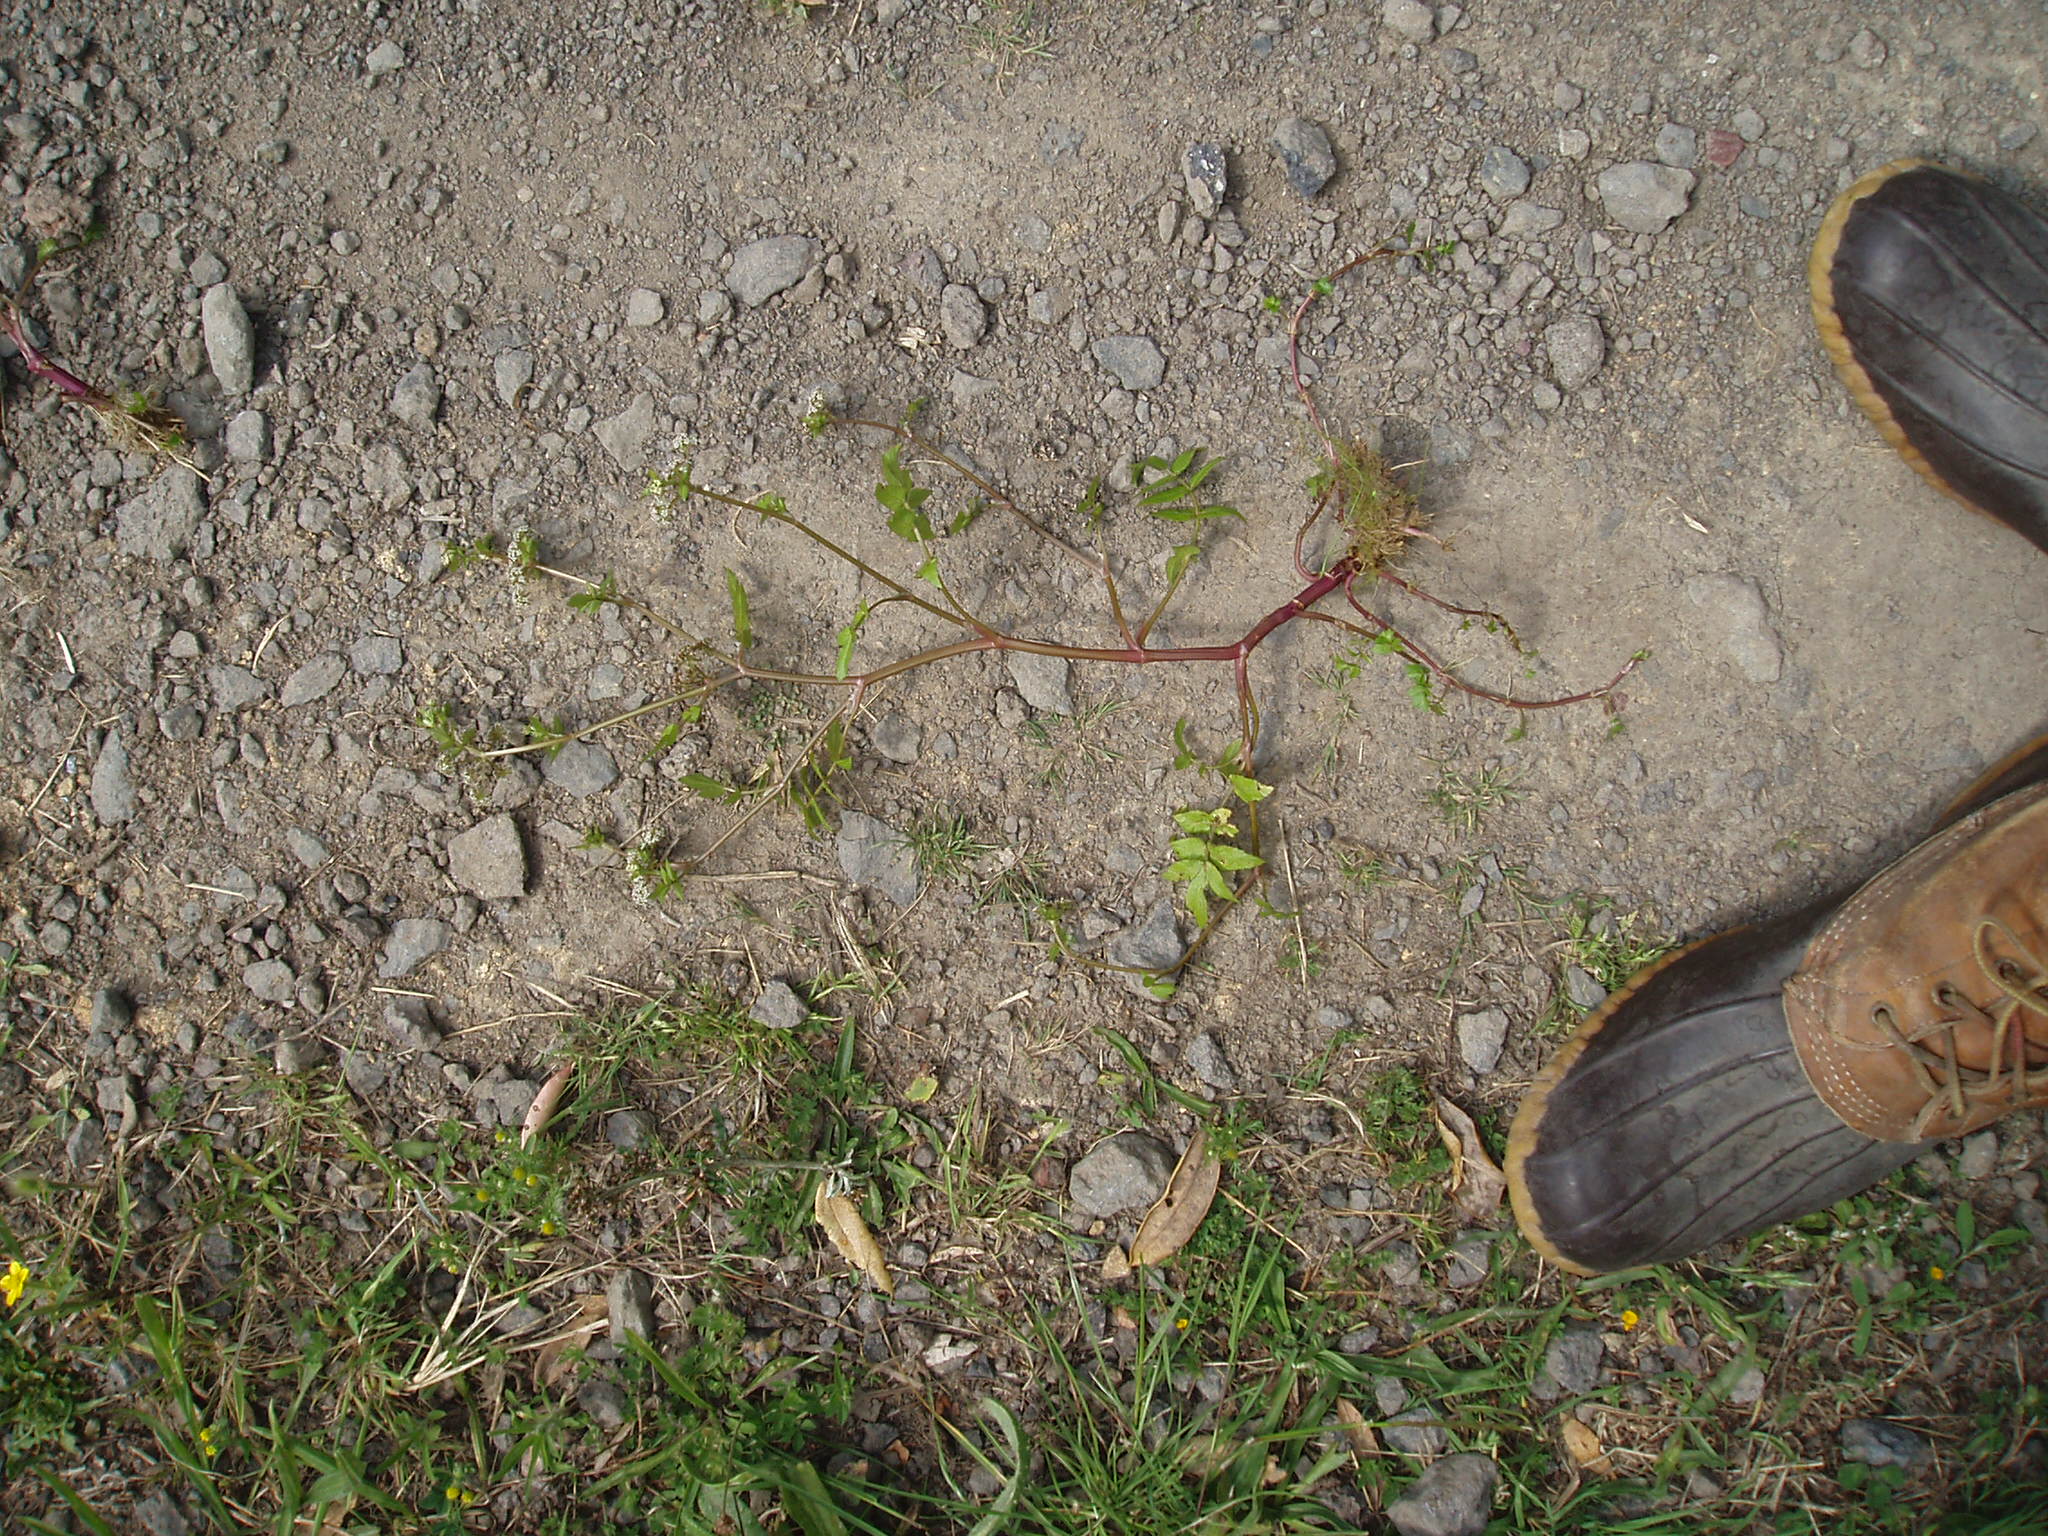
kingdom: Plantae
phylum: Tracheophyta
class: Magnoliopsida
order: Apiales
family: Apiaceae
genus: Helosciadium
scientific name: Helosciadium nodiflorum
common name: Fool's-watercress
